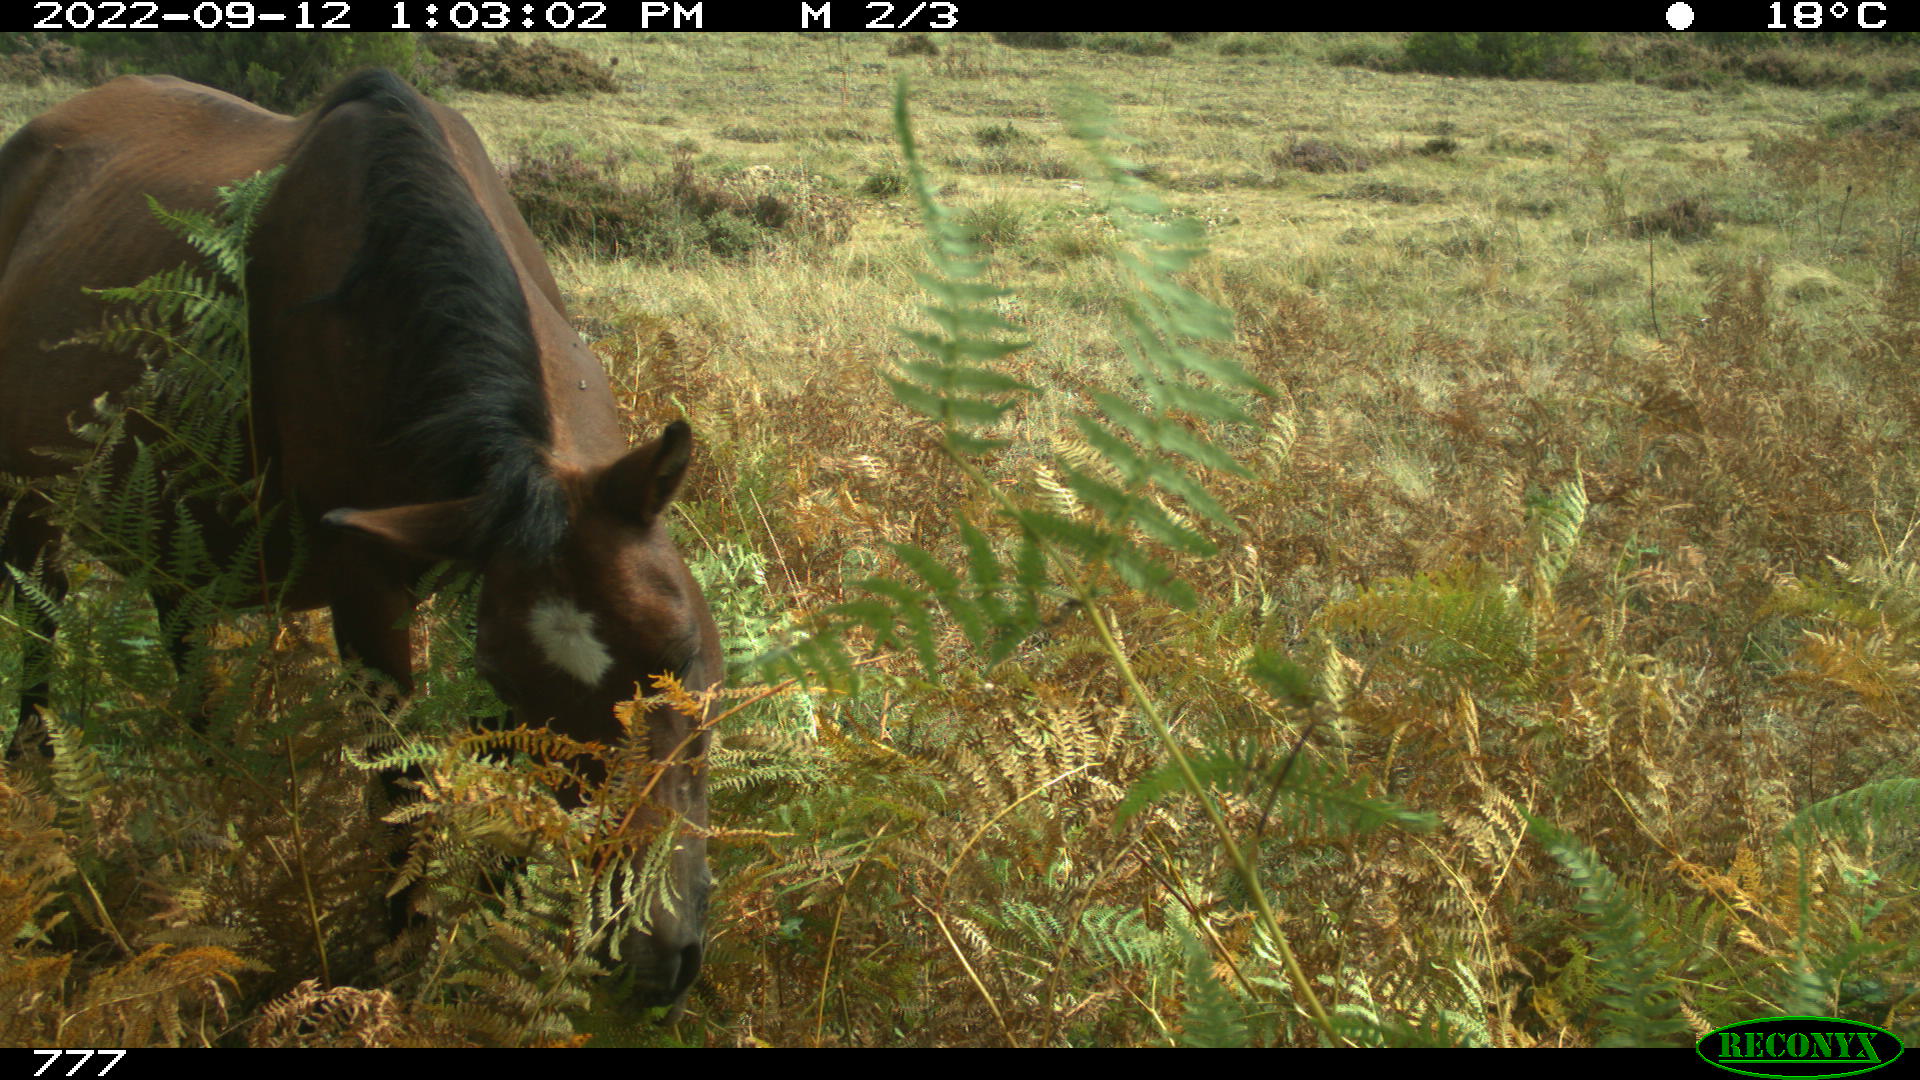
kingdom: Animalia
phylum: Chordata
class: Mammalia
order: Perissodactyla
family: Equidae
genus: Equus
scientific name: Equus caballus
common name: Horse
